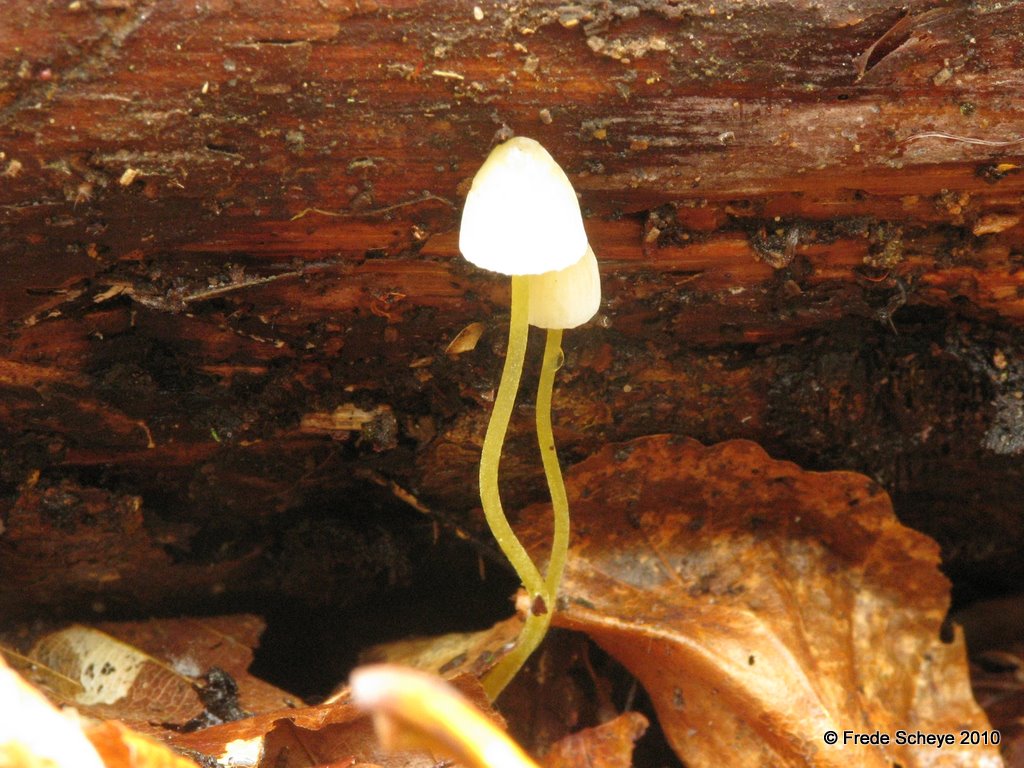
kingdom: Fungi
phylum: Basidiomycota
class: Agaricomycetes
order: Agaricales
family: Mycenaceae
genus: Mycena
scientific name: Mycena epipterygia
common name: gulstokket huesvamp
